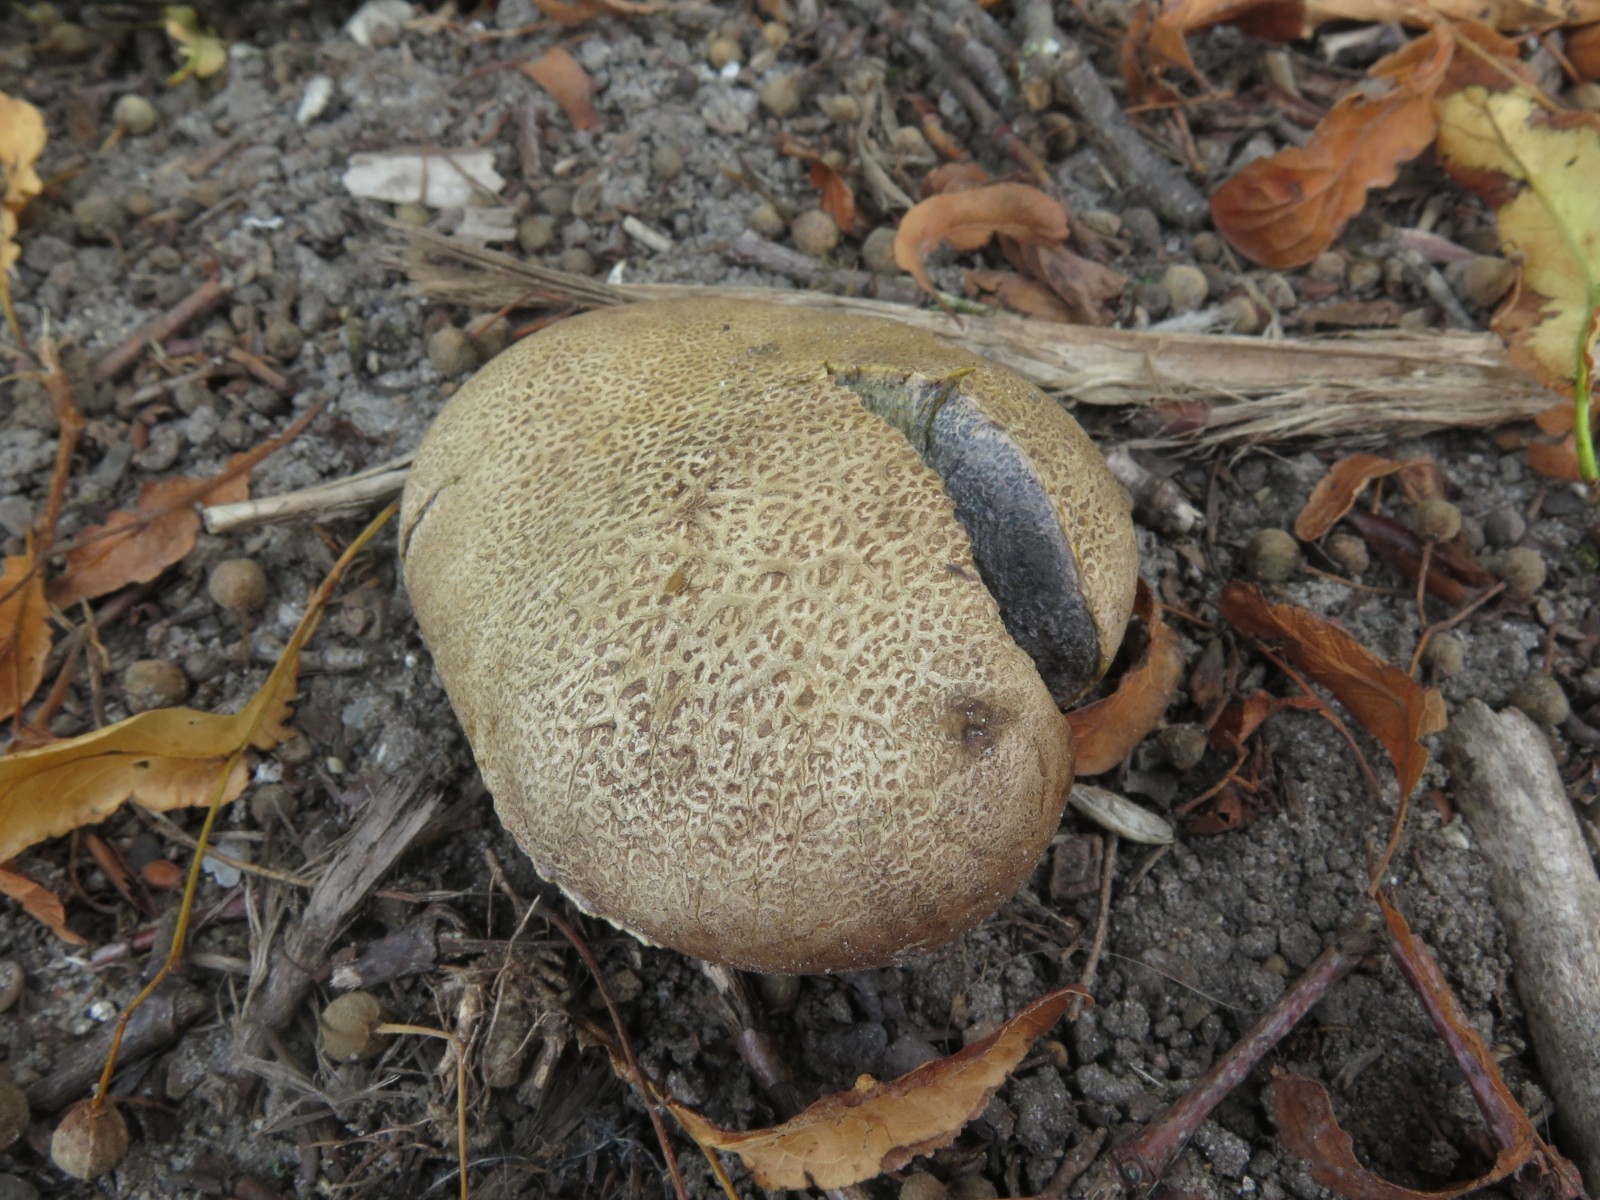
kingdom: Fungi
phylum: Basidiomycota
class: Agaricomycetes
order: Boletales
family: Sclerodermataceae
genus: Scleroderma
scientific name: Scleroderma verrucosum
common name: stilket bruskbold
